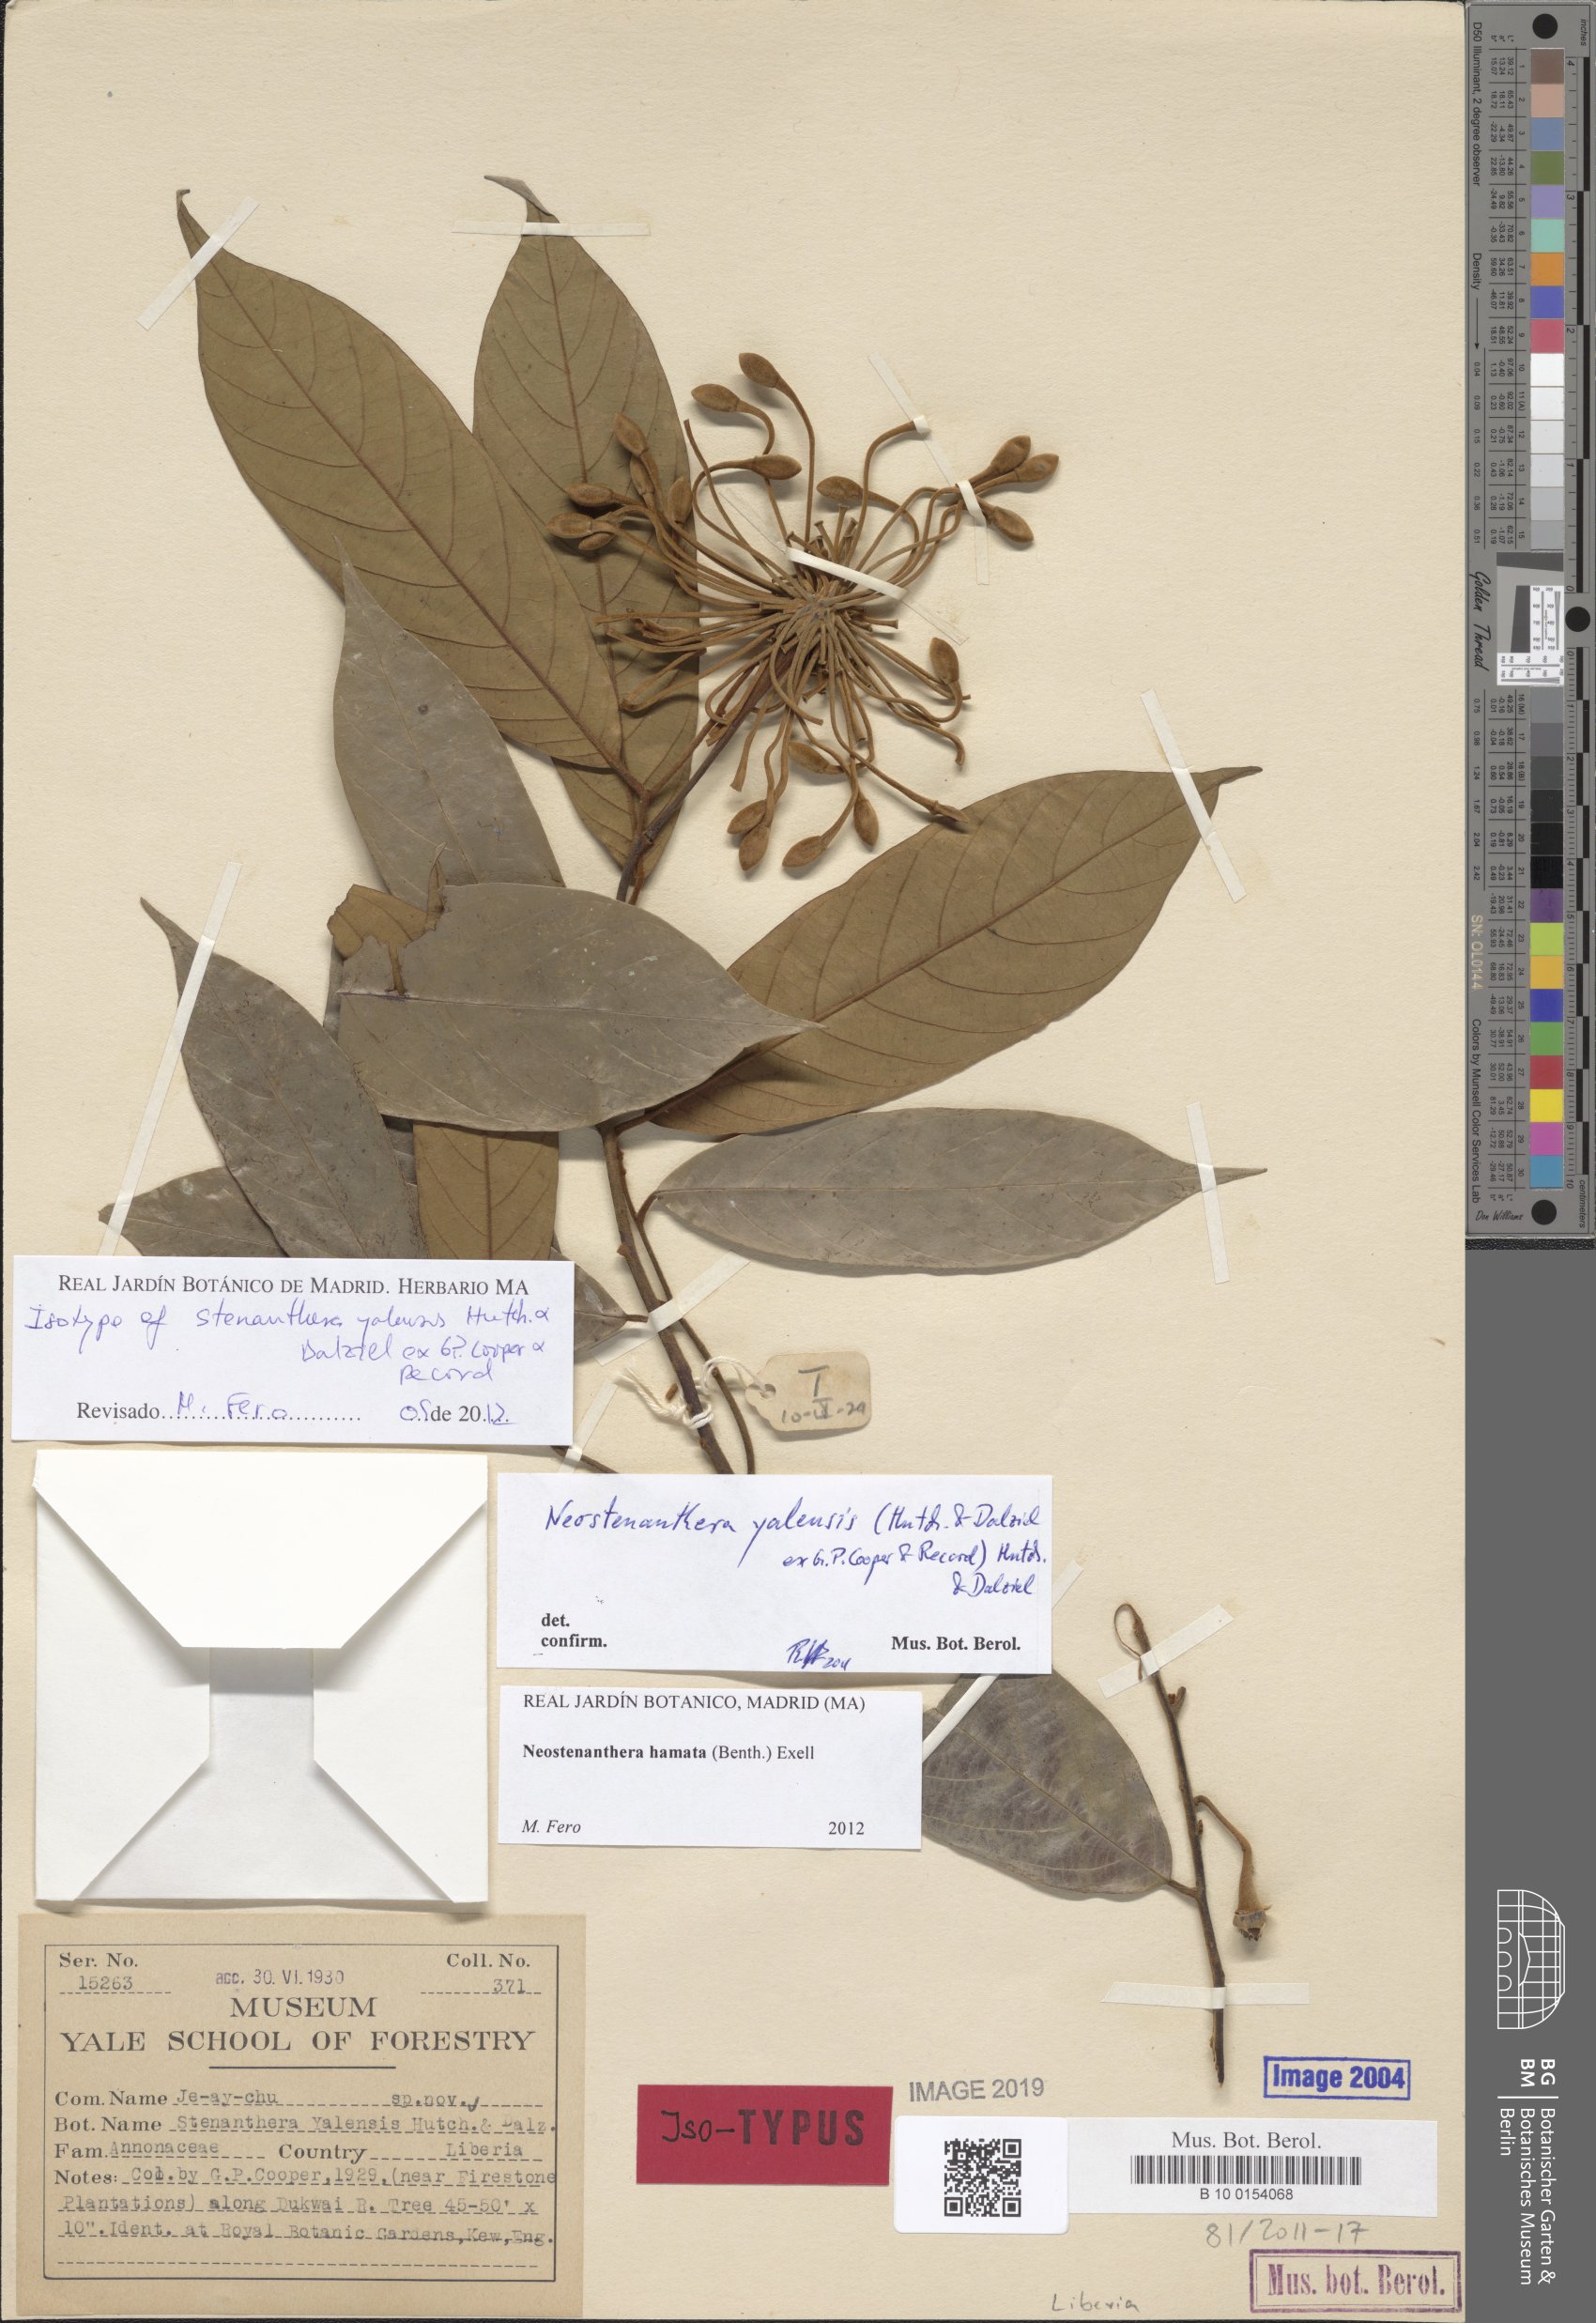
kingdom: Plantae
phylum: Tracheophyta
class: Magnoliopsida
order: Magnoliales
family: Annonaceae
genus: Neostenanthera
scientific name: Neostenanthera yalensis
